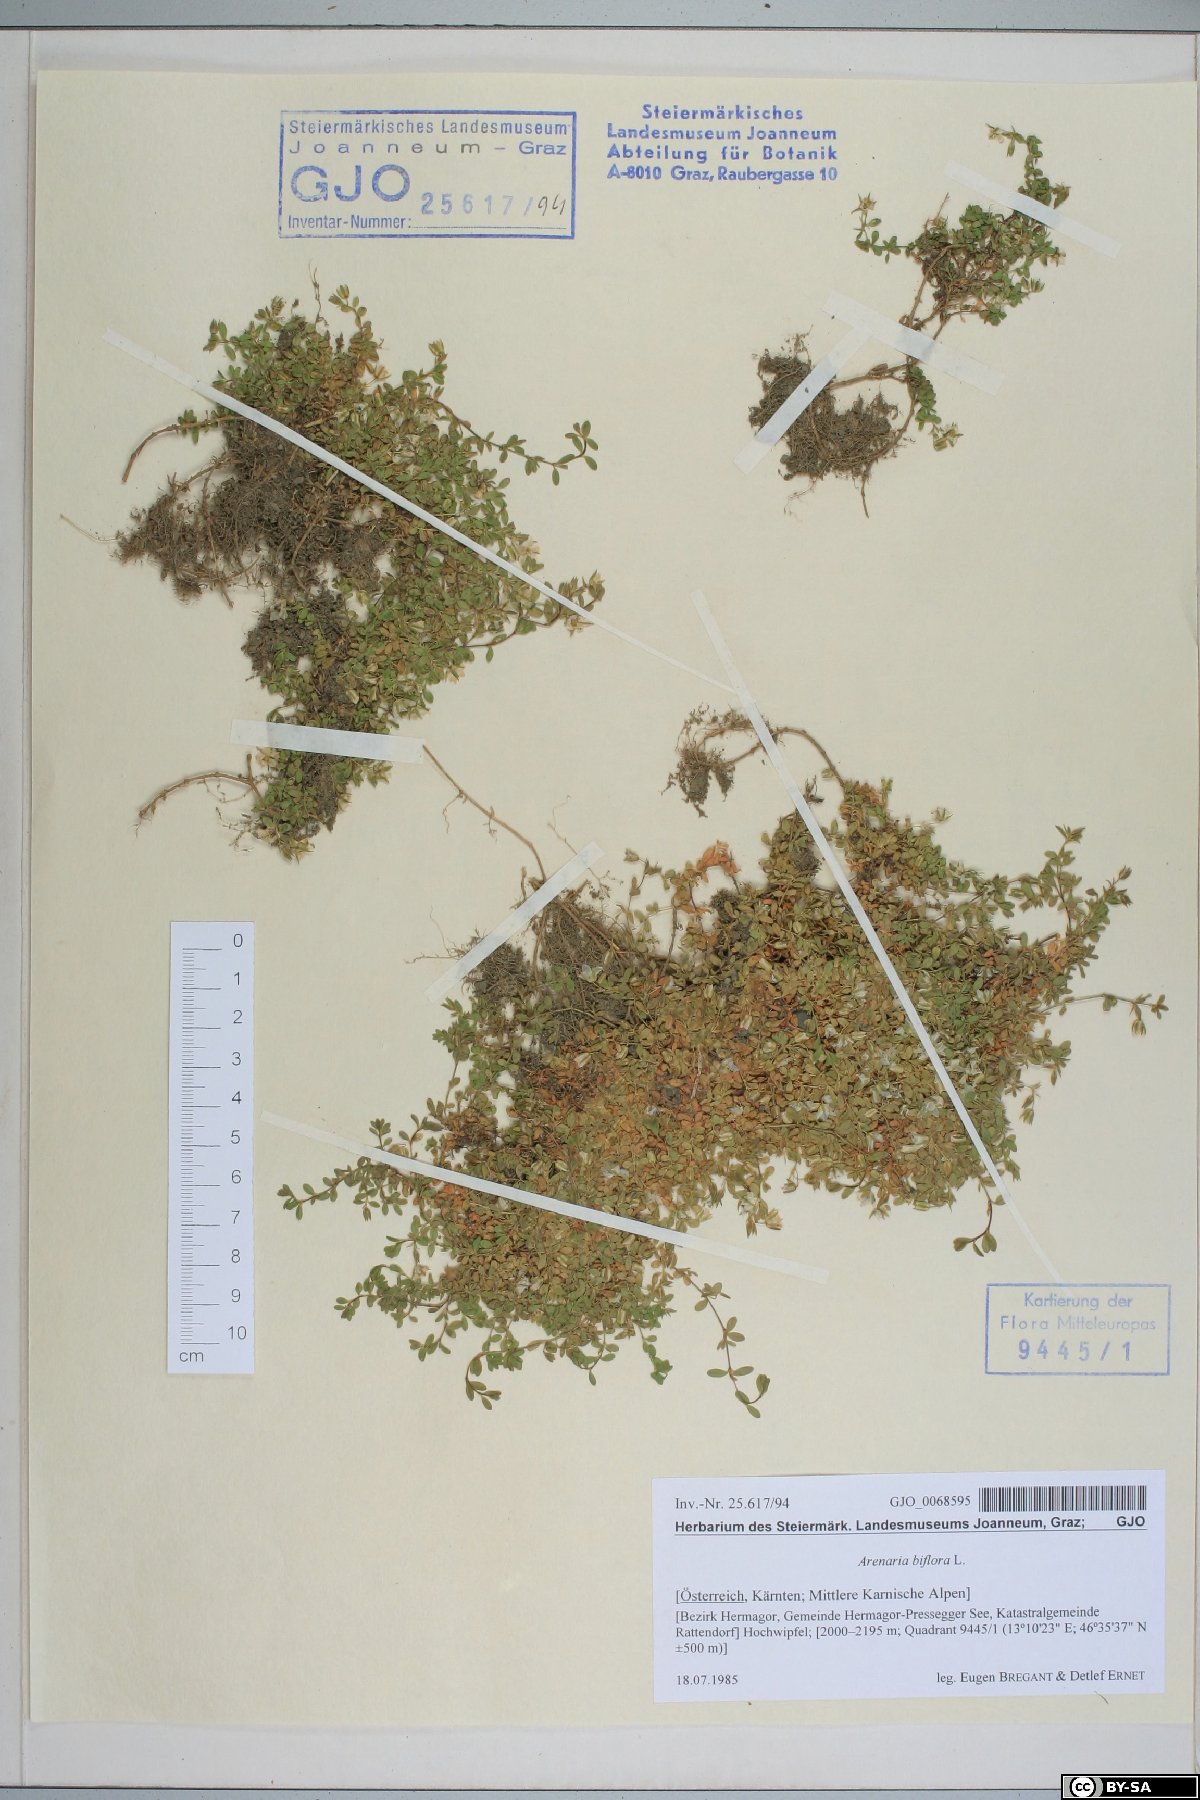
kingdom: Plantae
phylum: Tracheophyta
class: Magnoliopsida
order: Caryophyllales
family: Caryophyllaceae
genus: Arenaria
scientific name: Arenaria biflora
